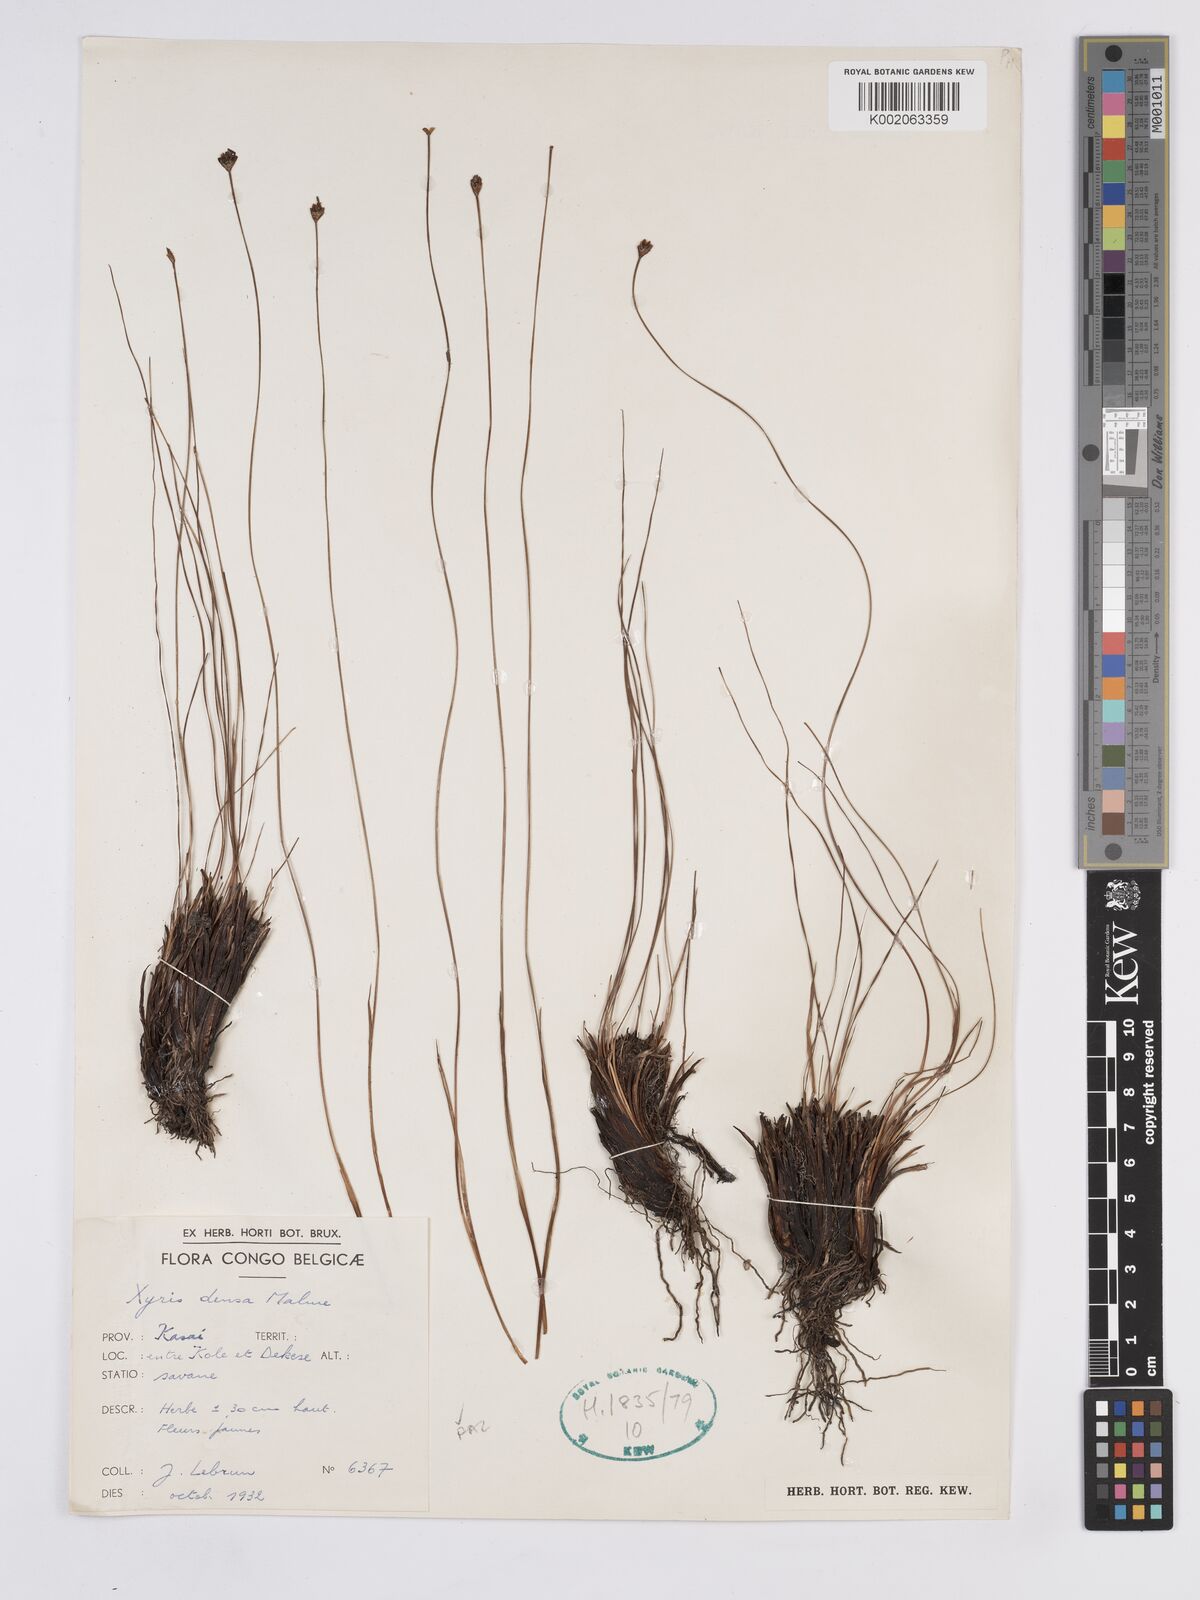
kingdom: Plantae
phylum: Tracheophyta
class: Liliopsida
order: Poales
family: Xyridaceae
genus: Xyris
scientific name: Xyris densa
